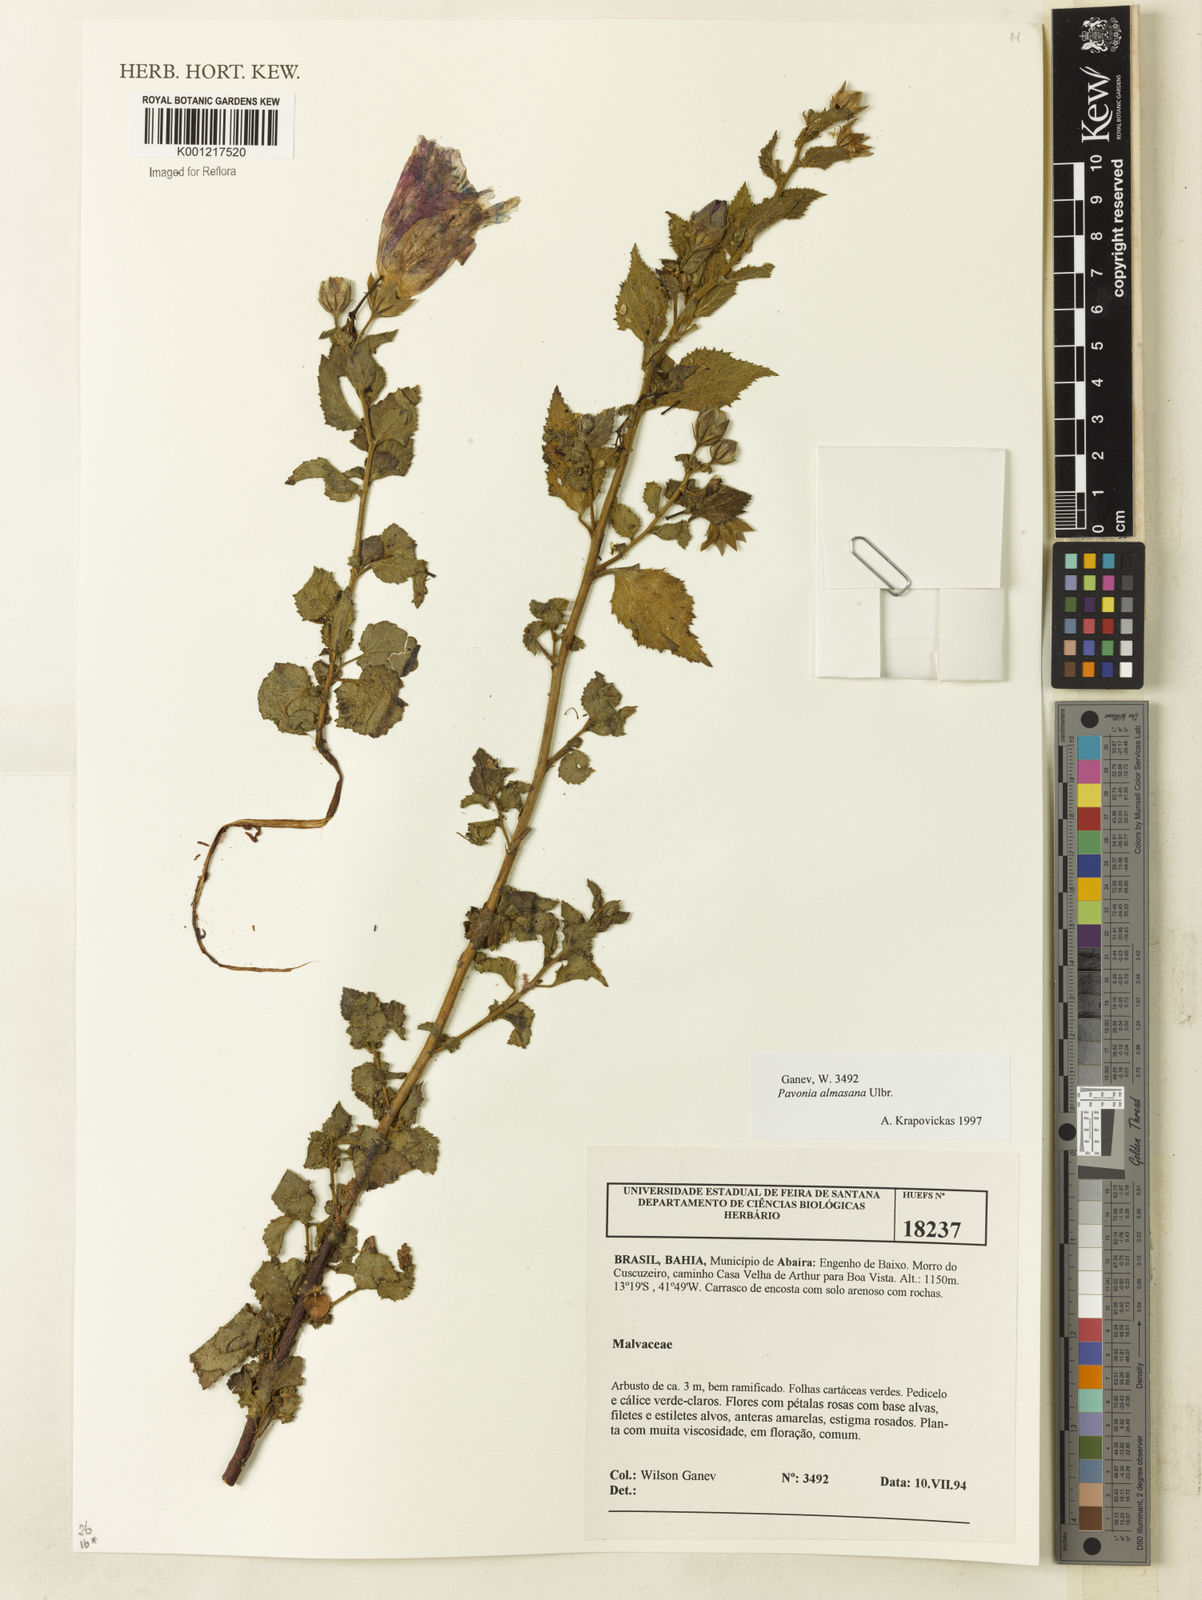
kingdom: Plantae
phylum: Tracheophyta
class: Magnoliopsida
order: Malvales
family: Malvaceae
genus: Pavonia
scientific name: Pavonia almasana
